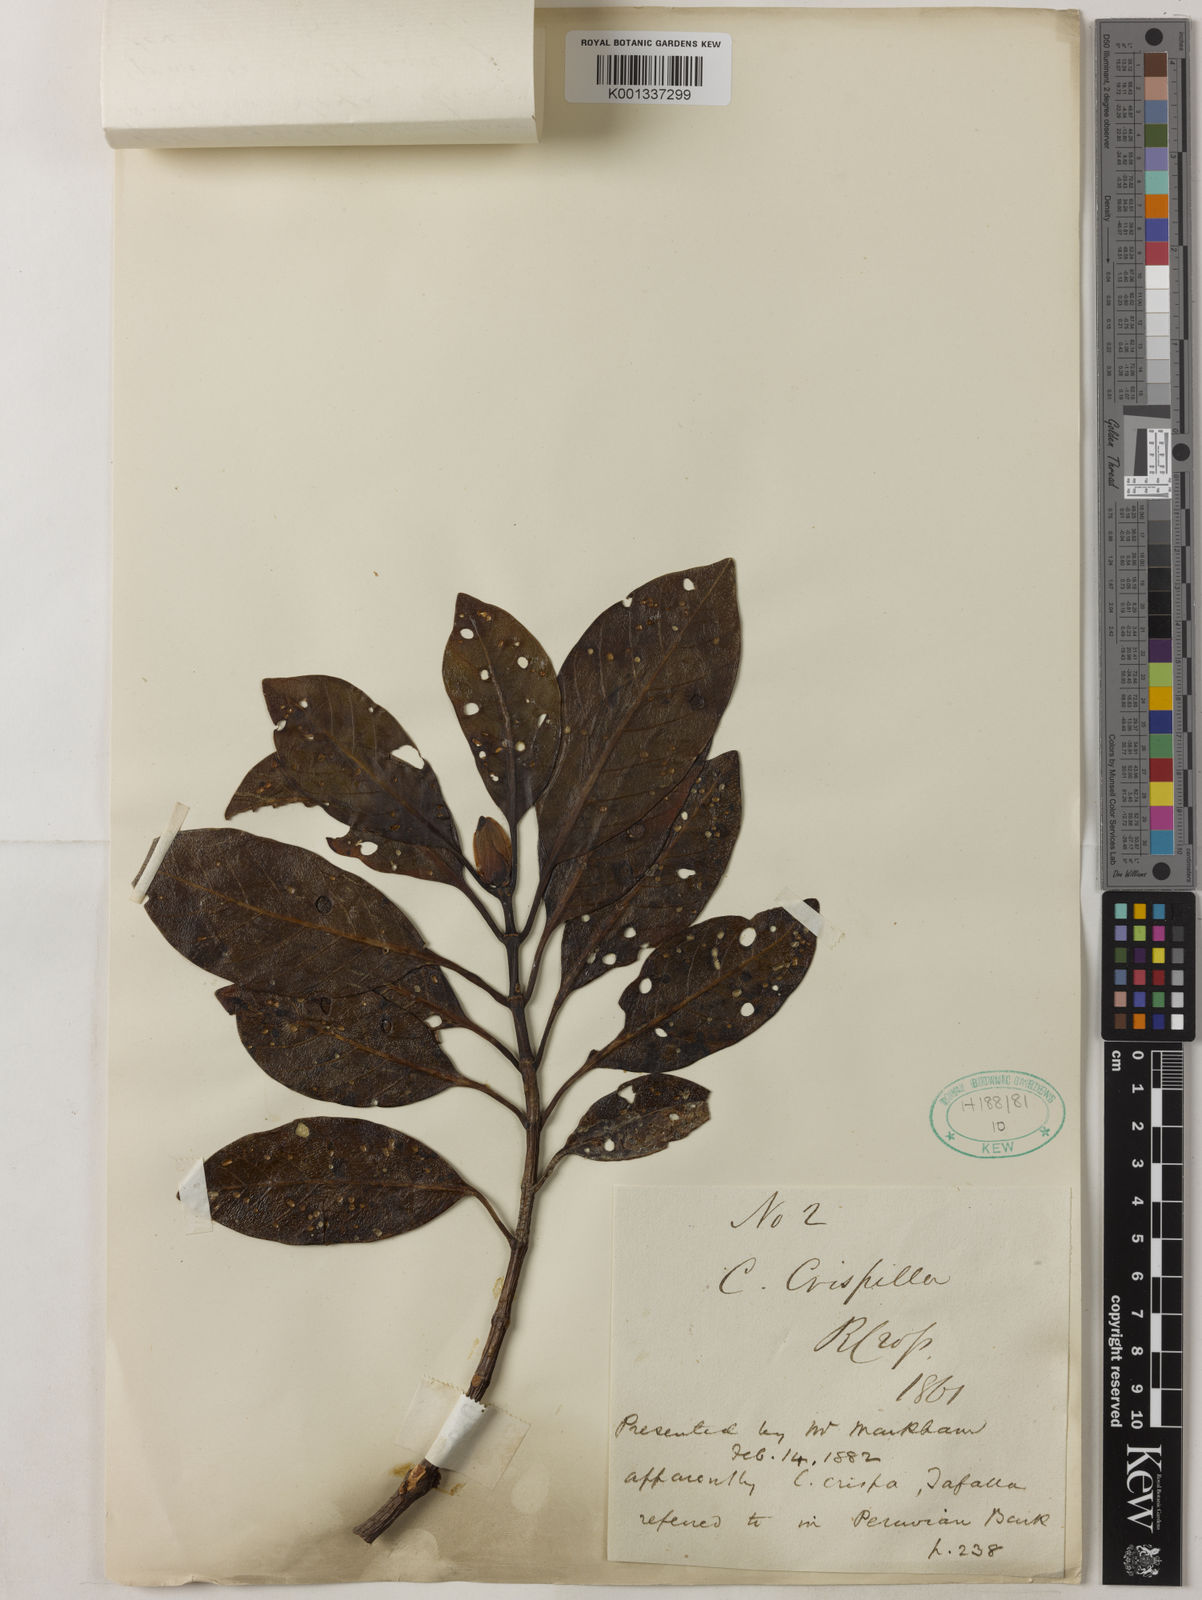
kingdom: Plantae
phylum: Tracheophyta
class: Magnoliopsida
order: Gentianales
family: Rubiaceae
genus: Cinchona
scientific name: Cinchona calisaya
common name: Ledgerbark
